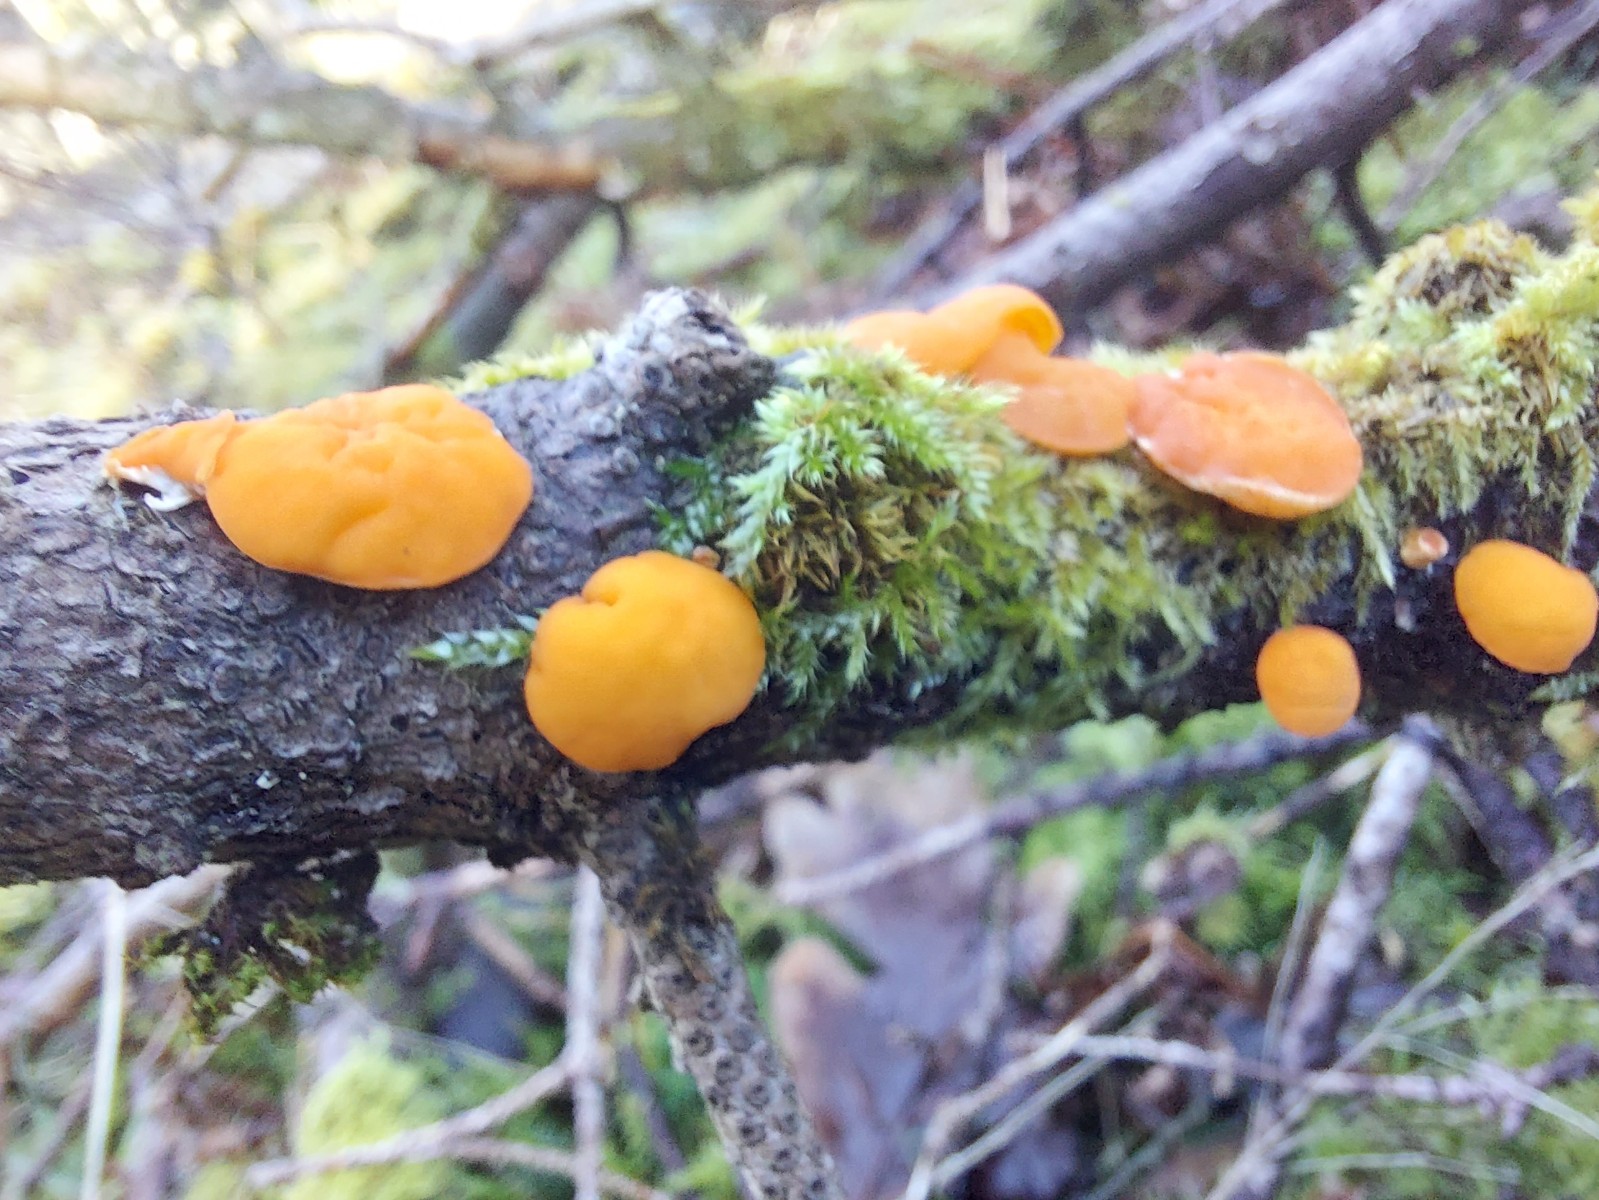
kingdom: Fungi
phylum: Ascomycota
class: Pezizomycetes
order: Pezizales
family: Sarcoscyphaceae
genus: Pithya
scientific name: Pithya vulgaris
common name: stor dukatbæger
